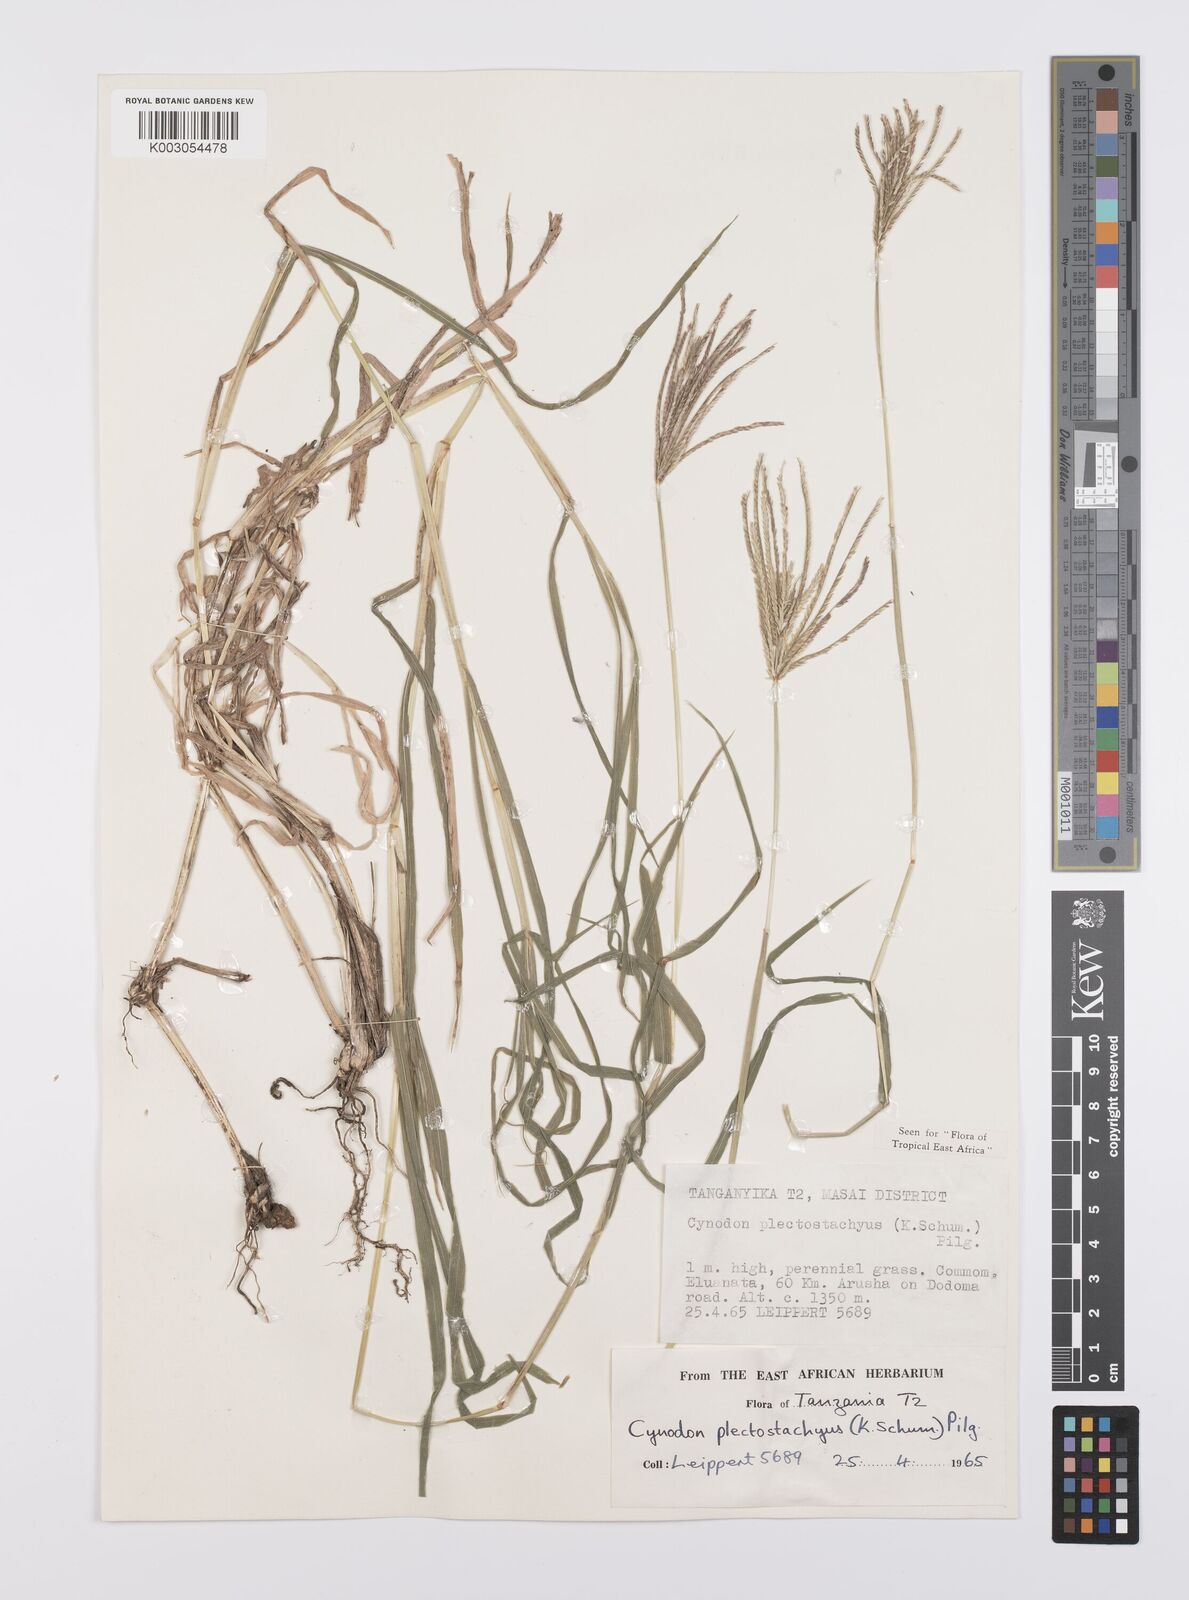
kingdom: Plantae
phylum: Tracheophyta
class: Liliopsida
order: Poales
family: Poaceae
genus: Cynodon
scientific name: Cynodon plectostachyus
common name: Stargrass
